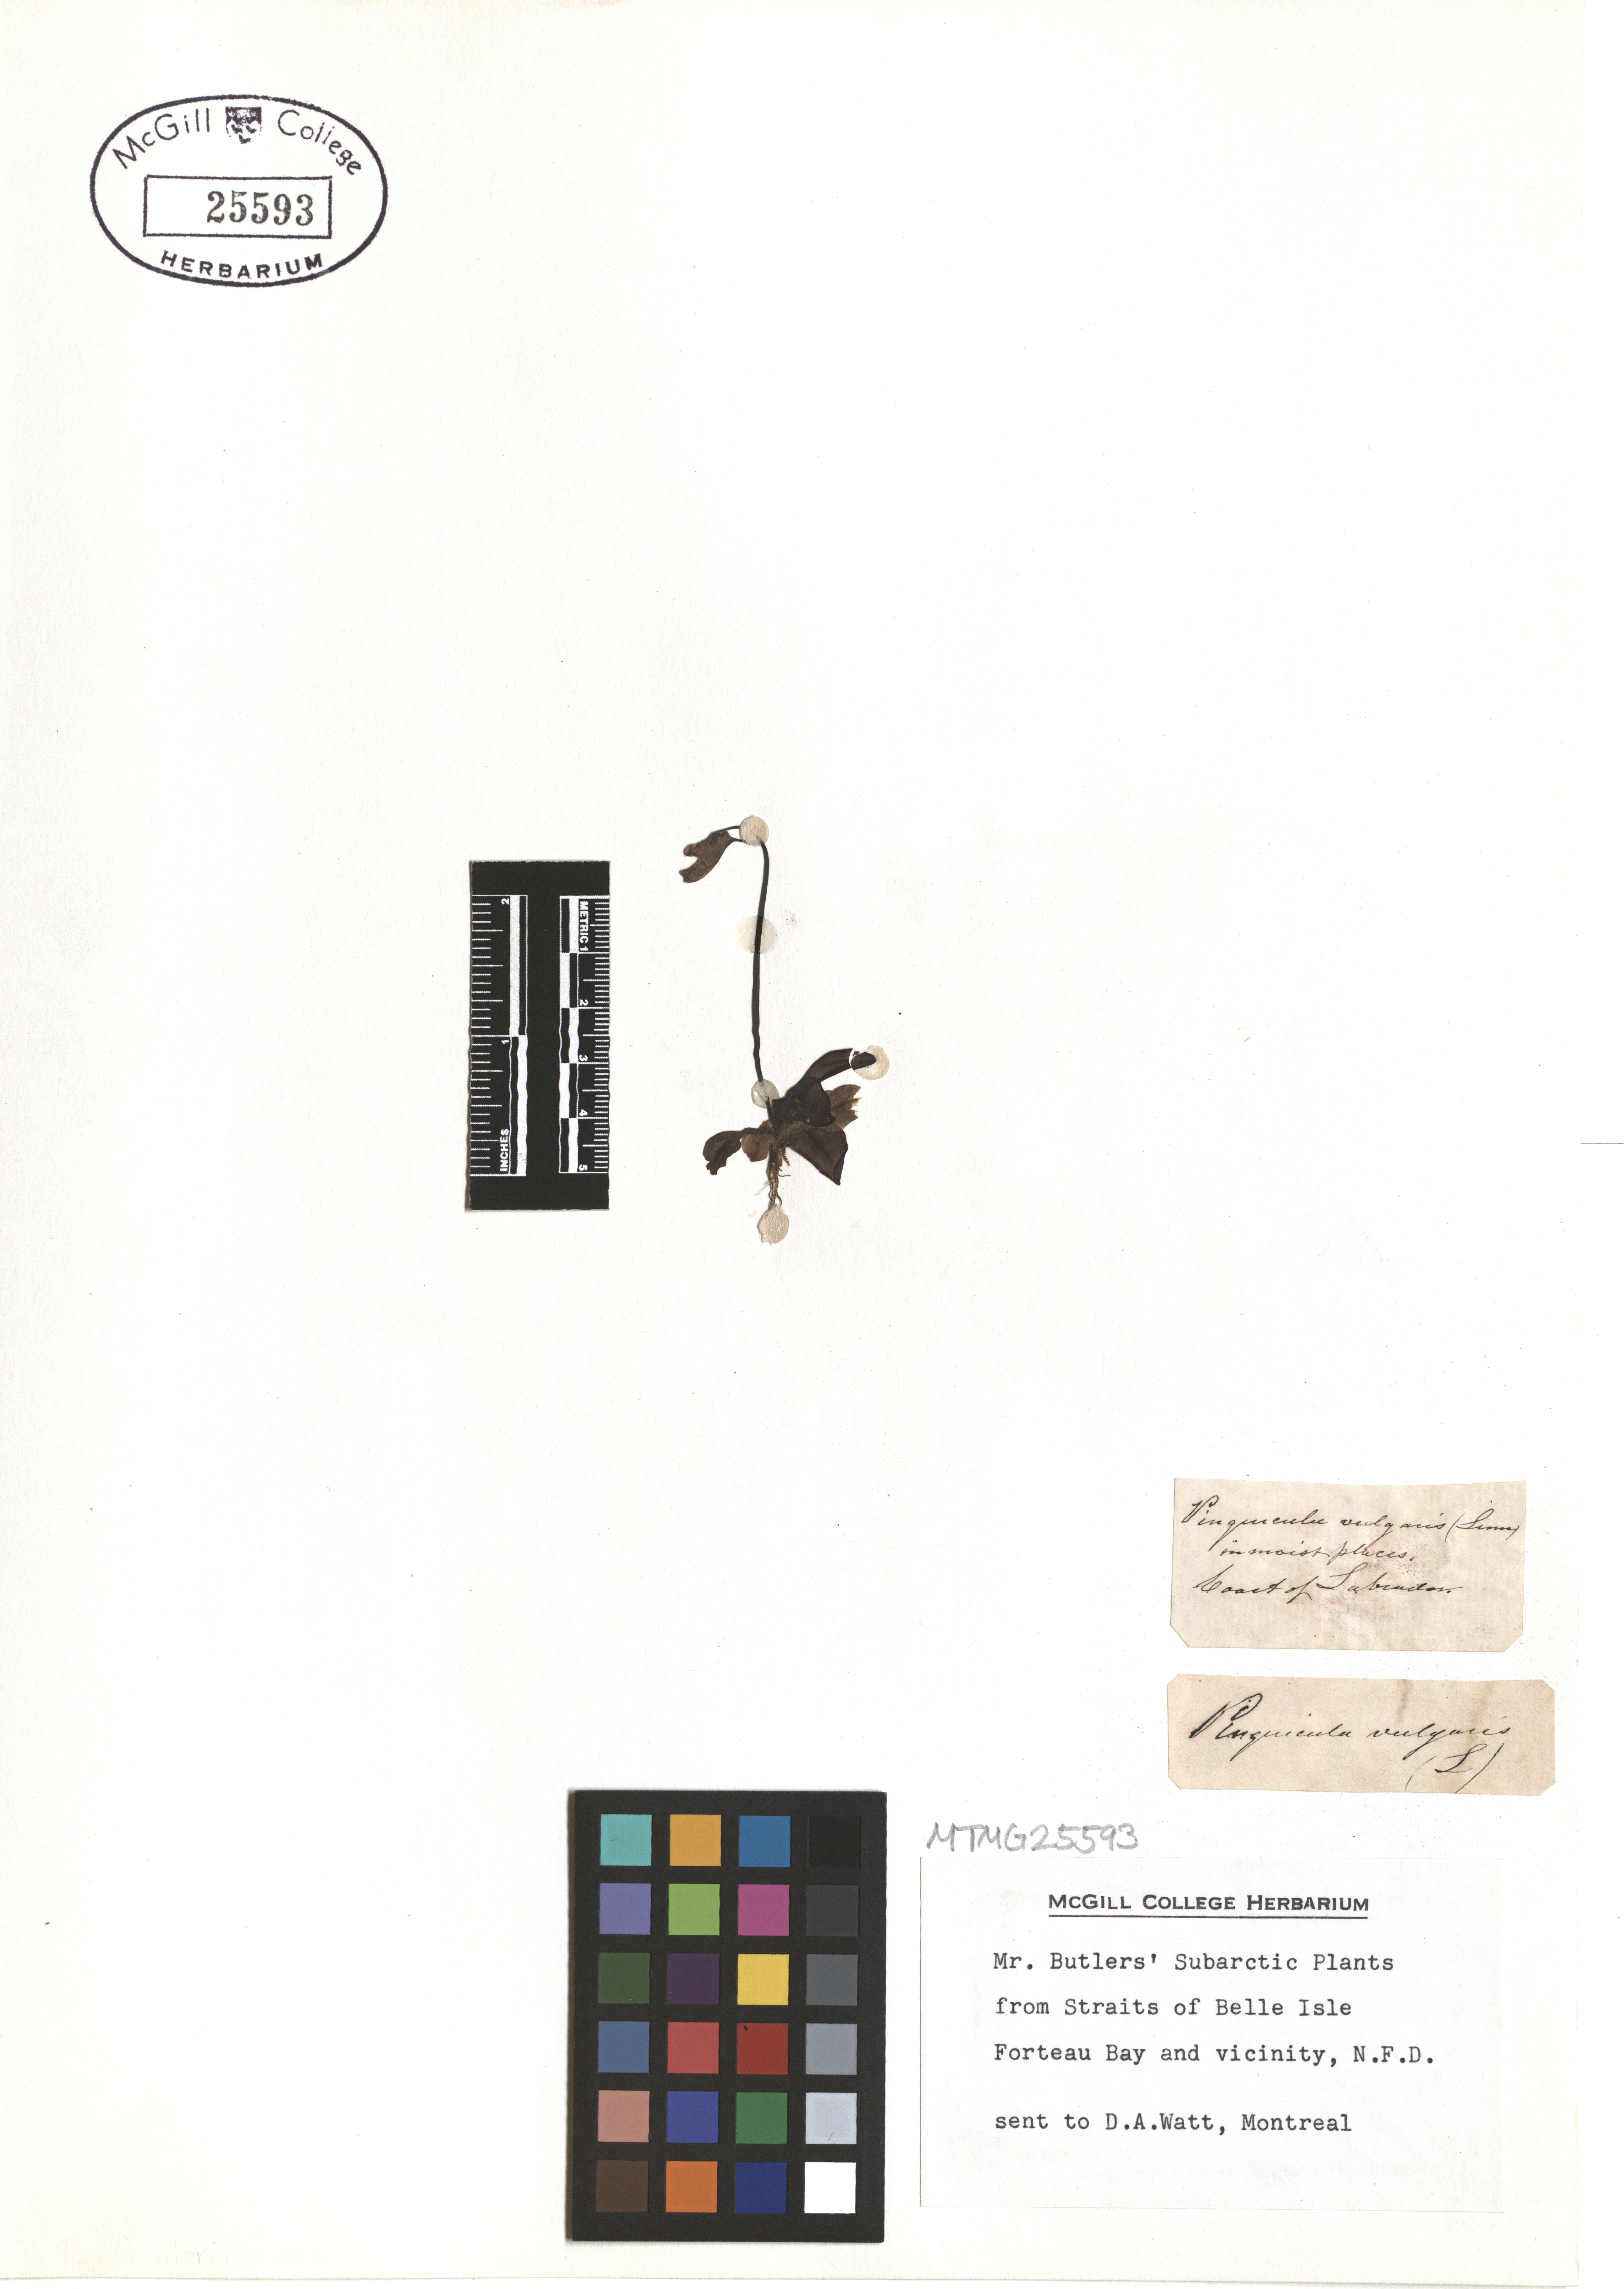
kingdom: Plantae
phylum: Tracheophyta
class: Magnoliopsida
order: Lamiales
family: Lentibulariaceae
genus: Pinguicula
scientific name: Pinguicula vulgaris
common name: Common butterwort
